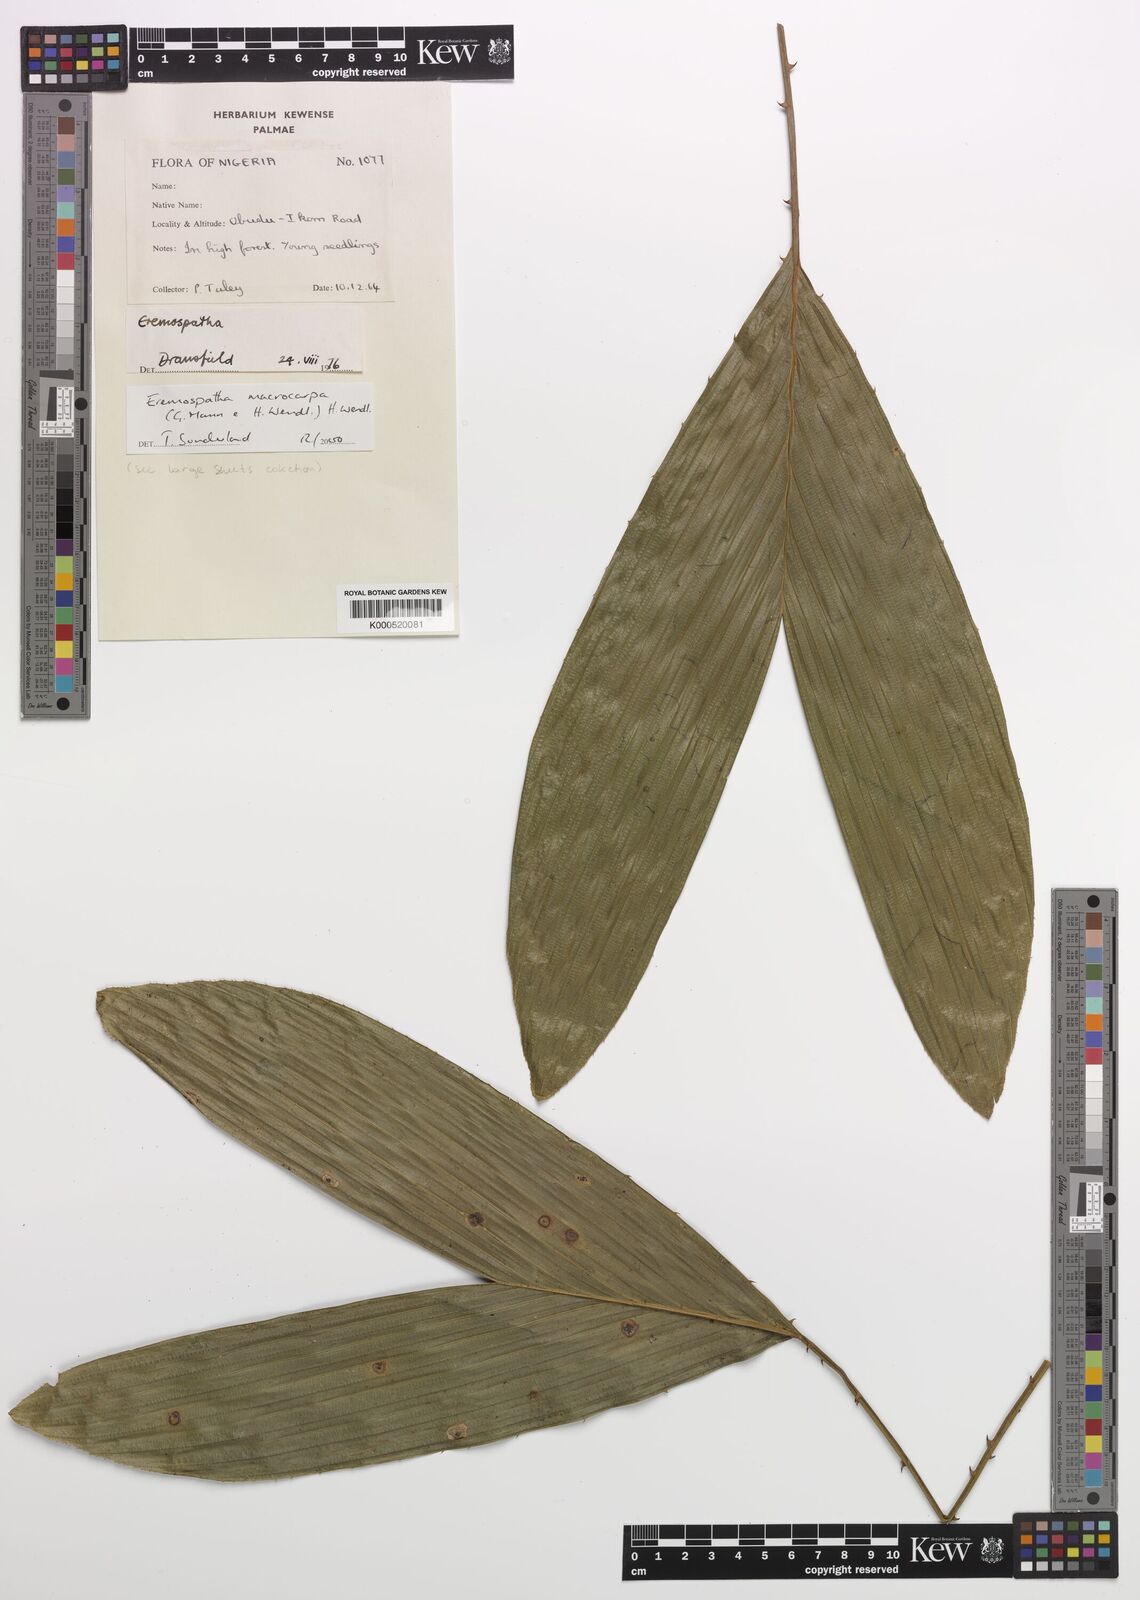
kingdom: Plantae
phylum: Tracheophyta
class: Liliopsida
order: Arecales
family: Arecaceae
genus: Eremospatha
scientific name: Eremospatha
